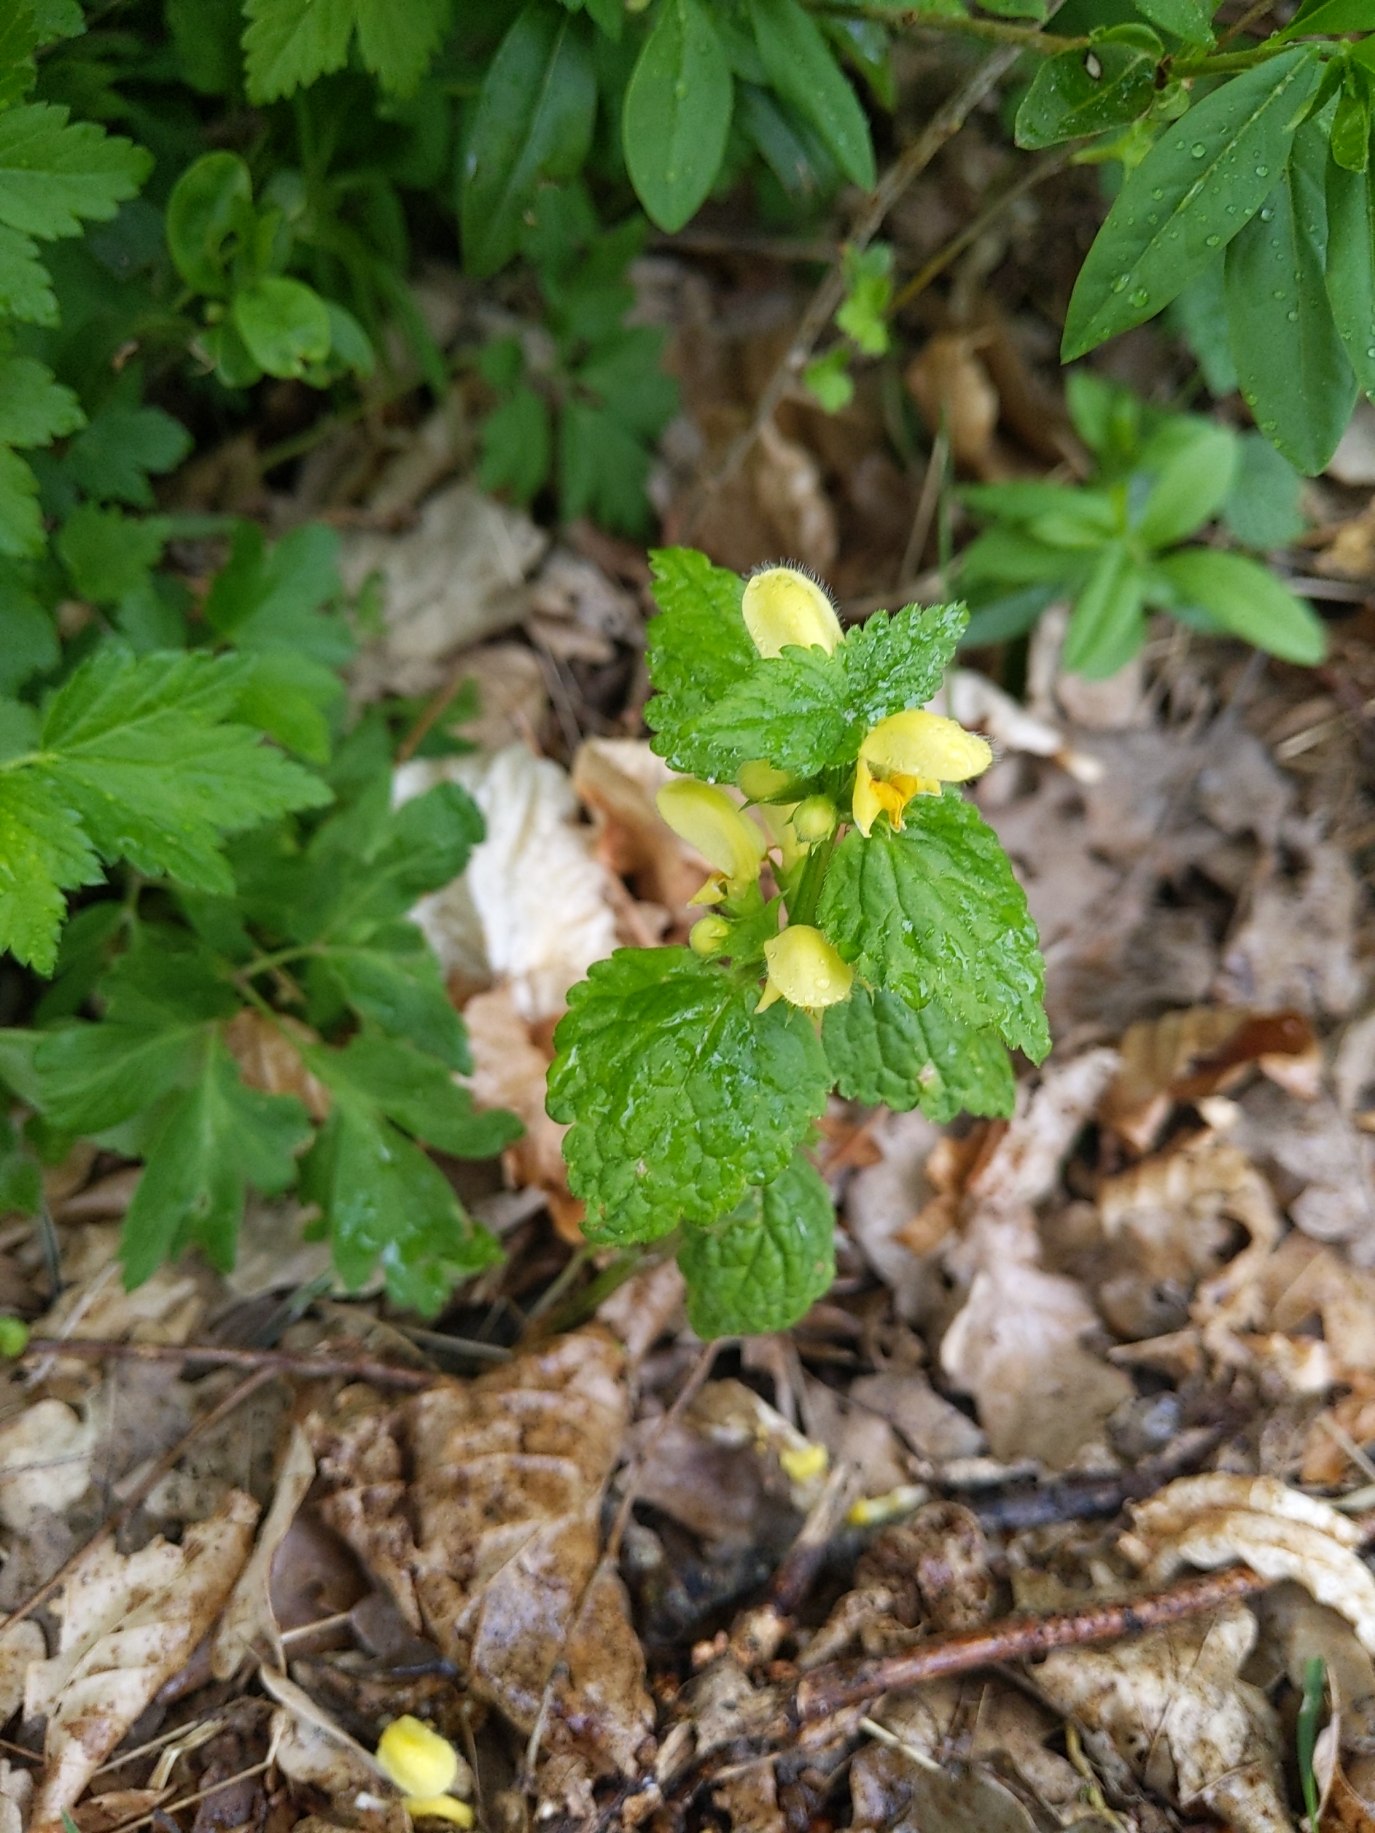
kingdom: Plantae
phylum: Tracheophyta
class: Magnoliopsida
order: Lamiales
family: Lamiaceae
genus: Lamium
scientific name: Lamium galeobdolon
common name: Almindelig guldnælde
